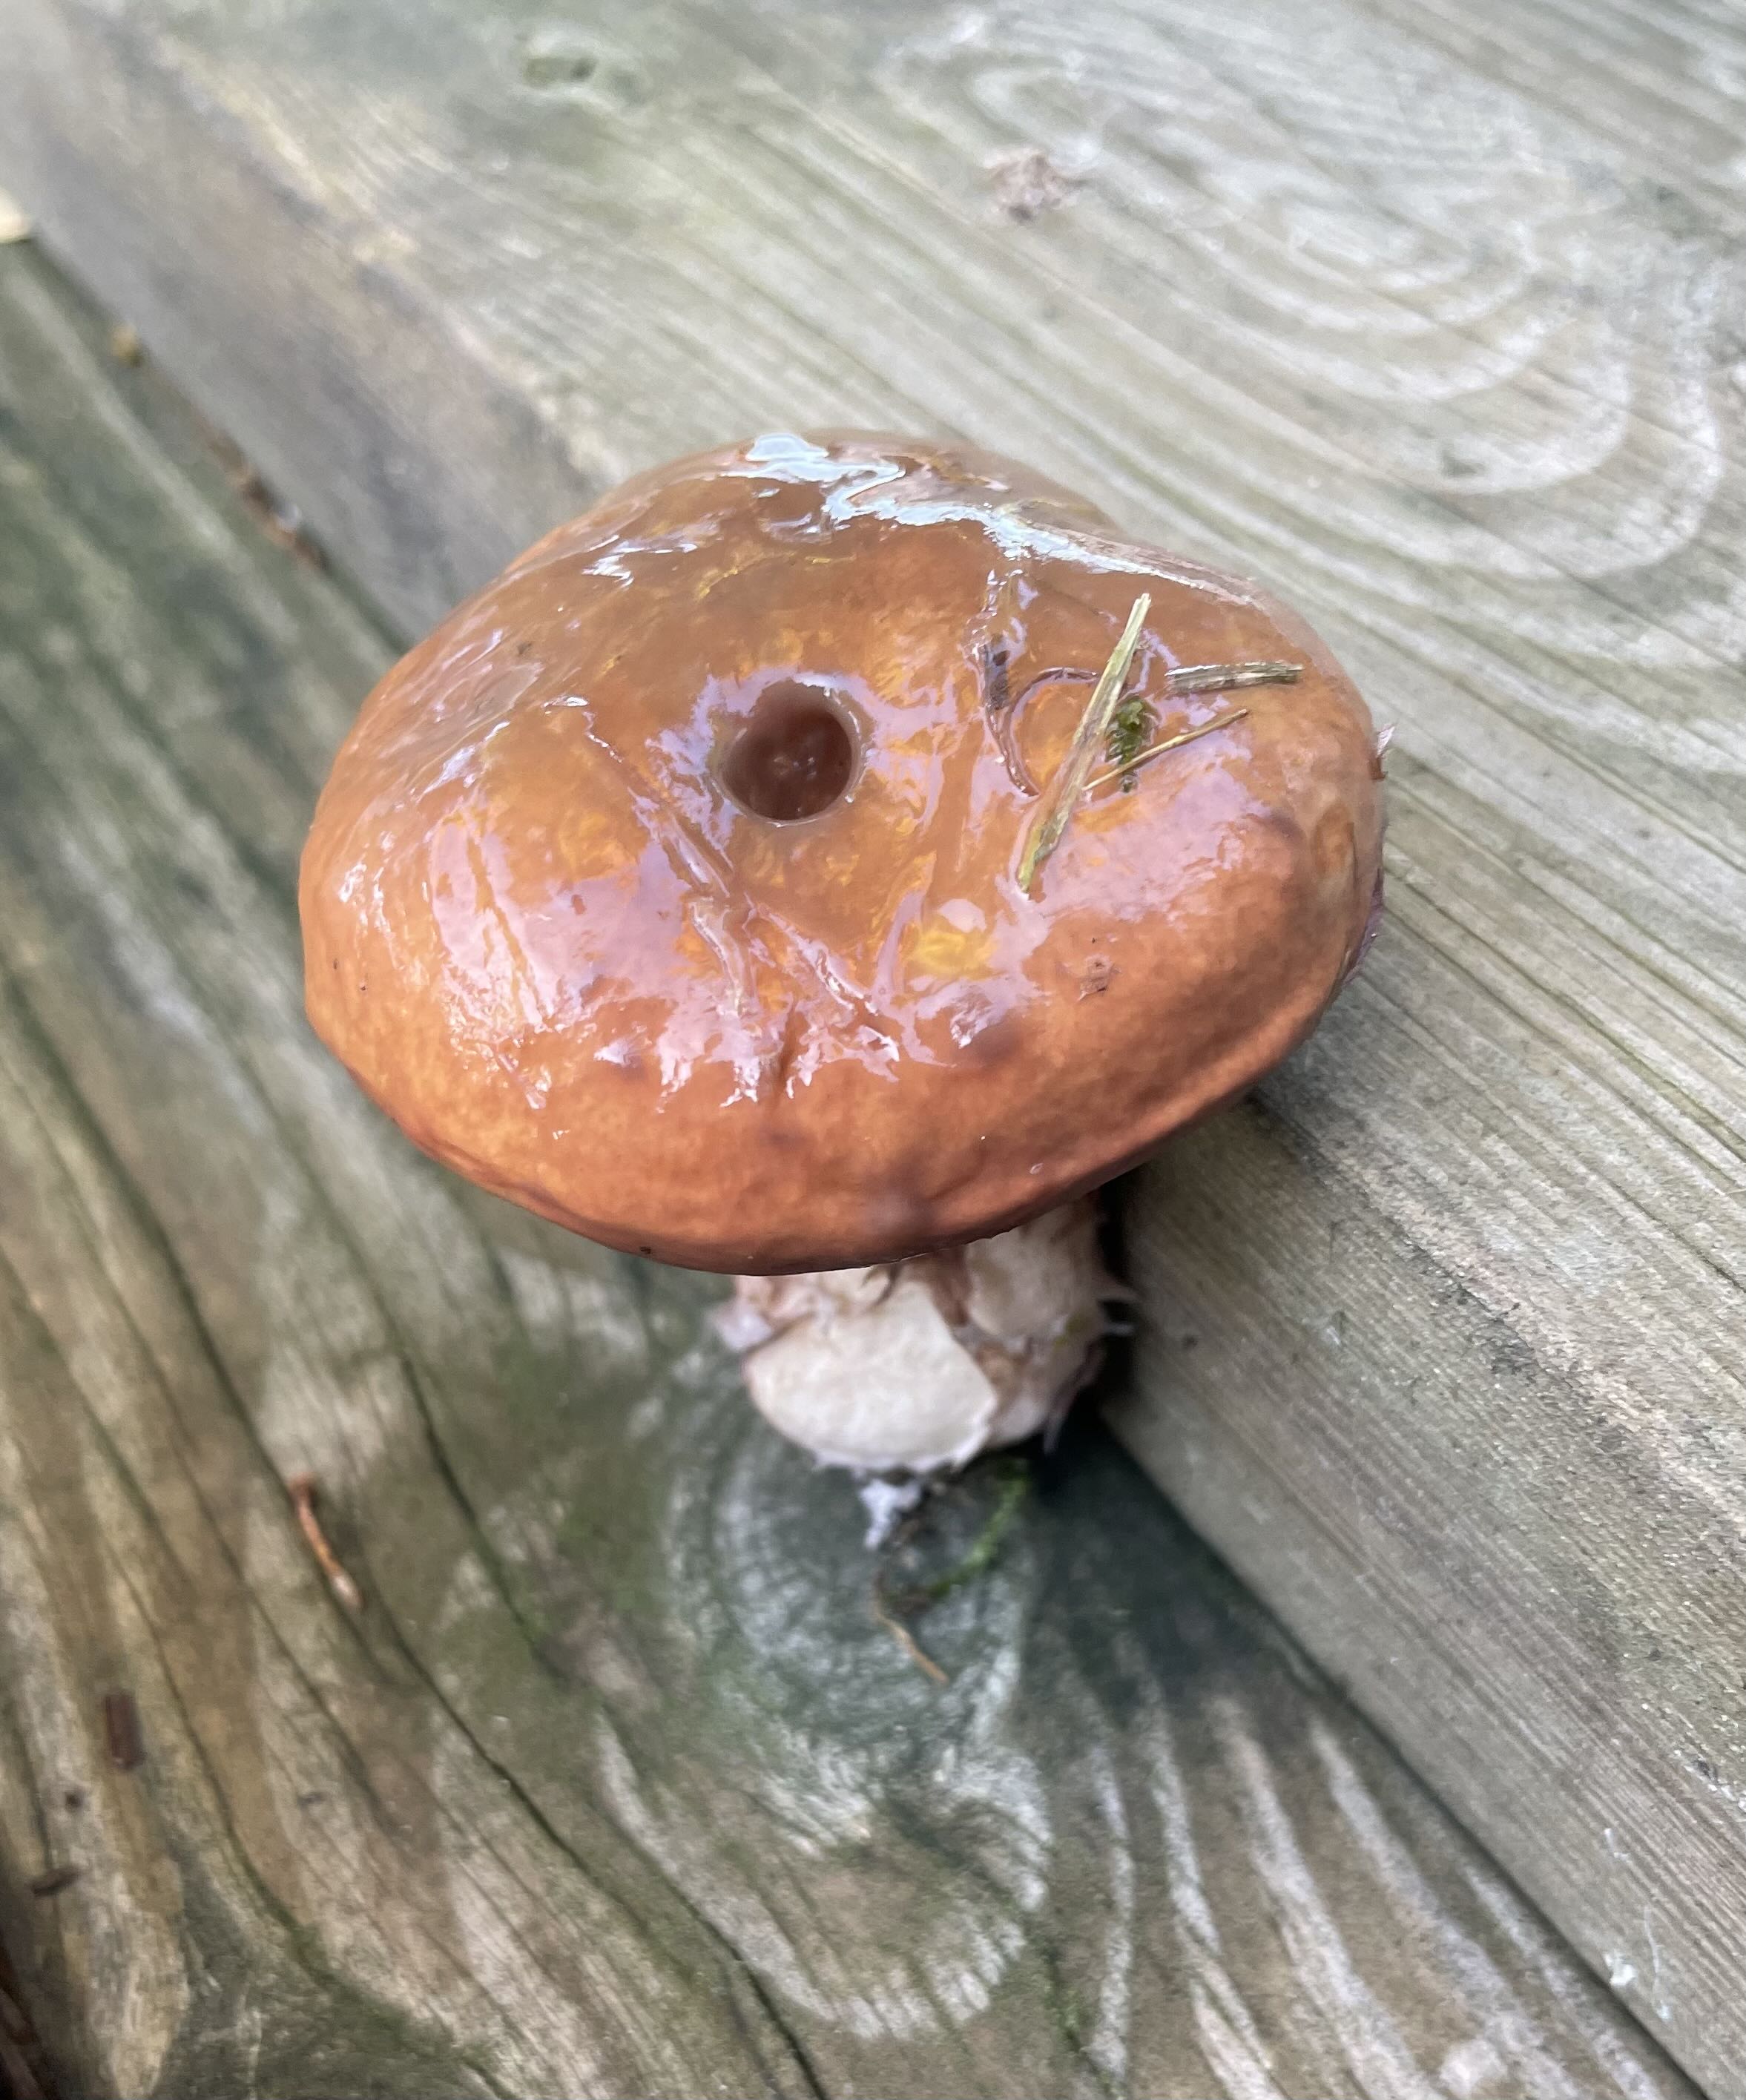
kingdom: Fungi
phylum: Basidiomycota
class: Agaricomycetes
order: Boletales
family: Suillaceae
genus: Suillus
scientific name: Suillus luteus
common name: brungul slimrørhat
